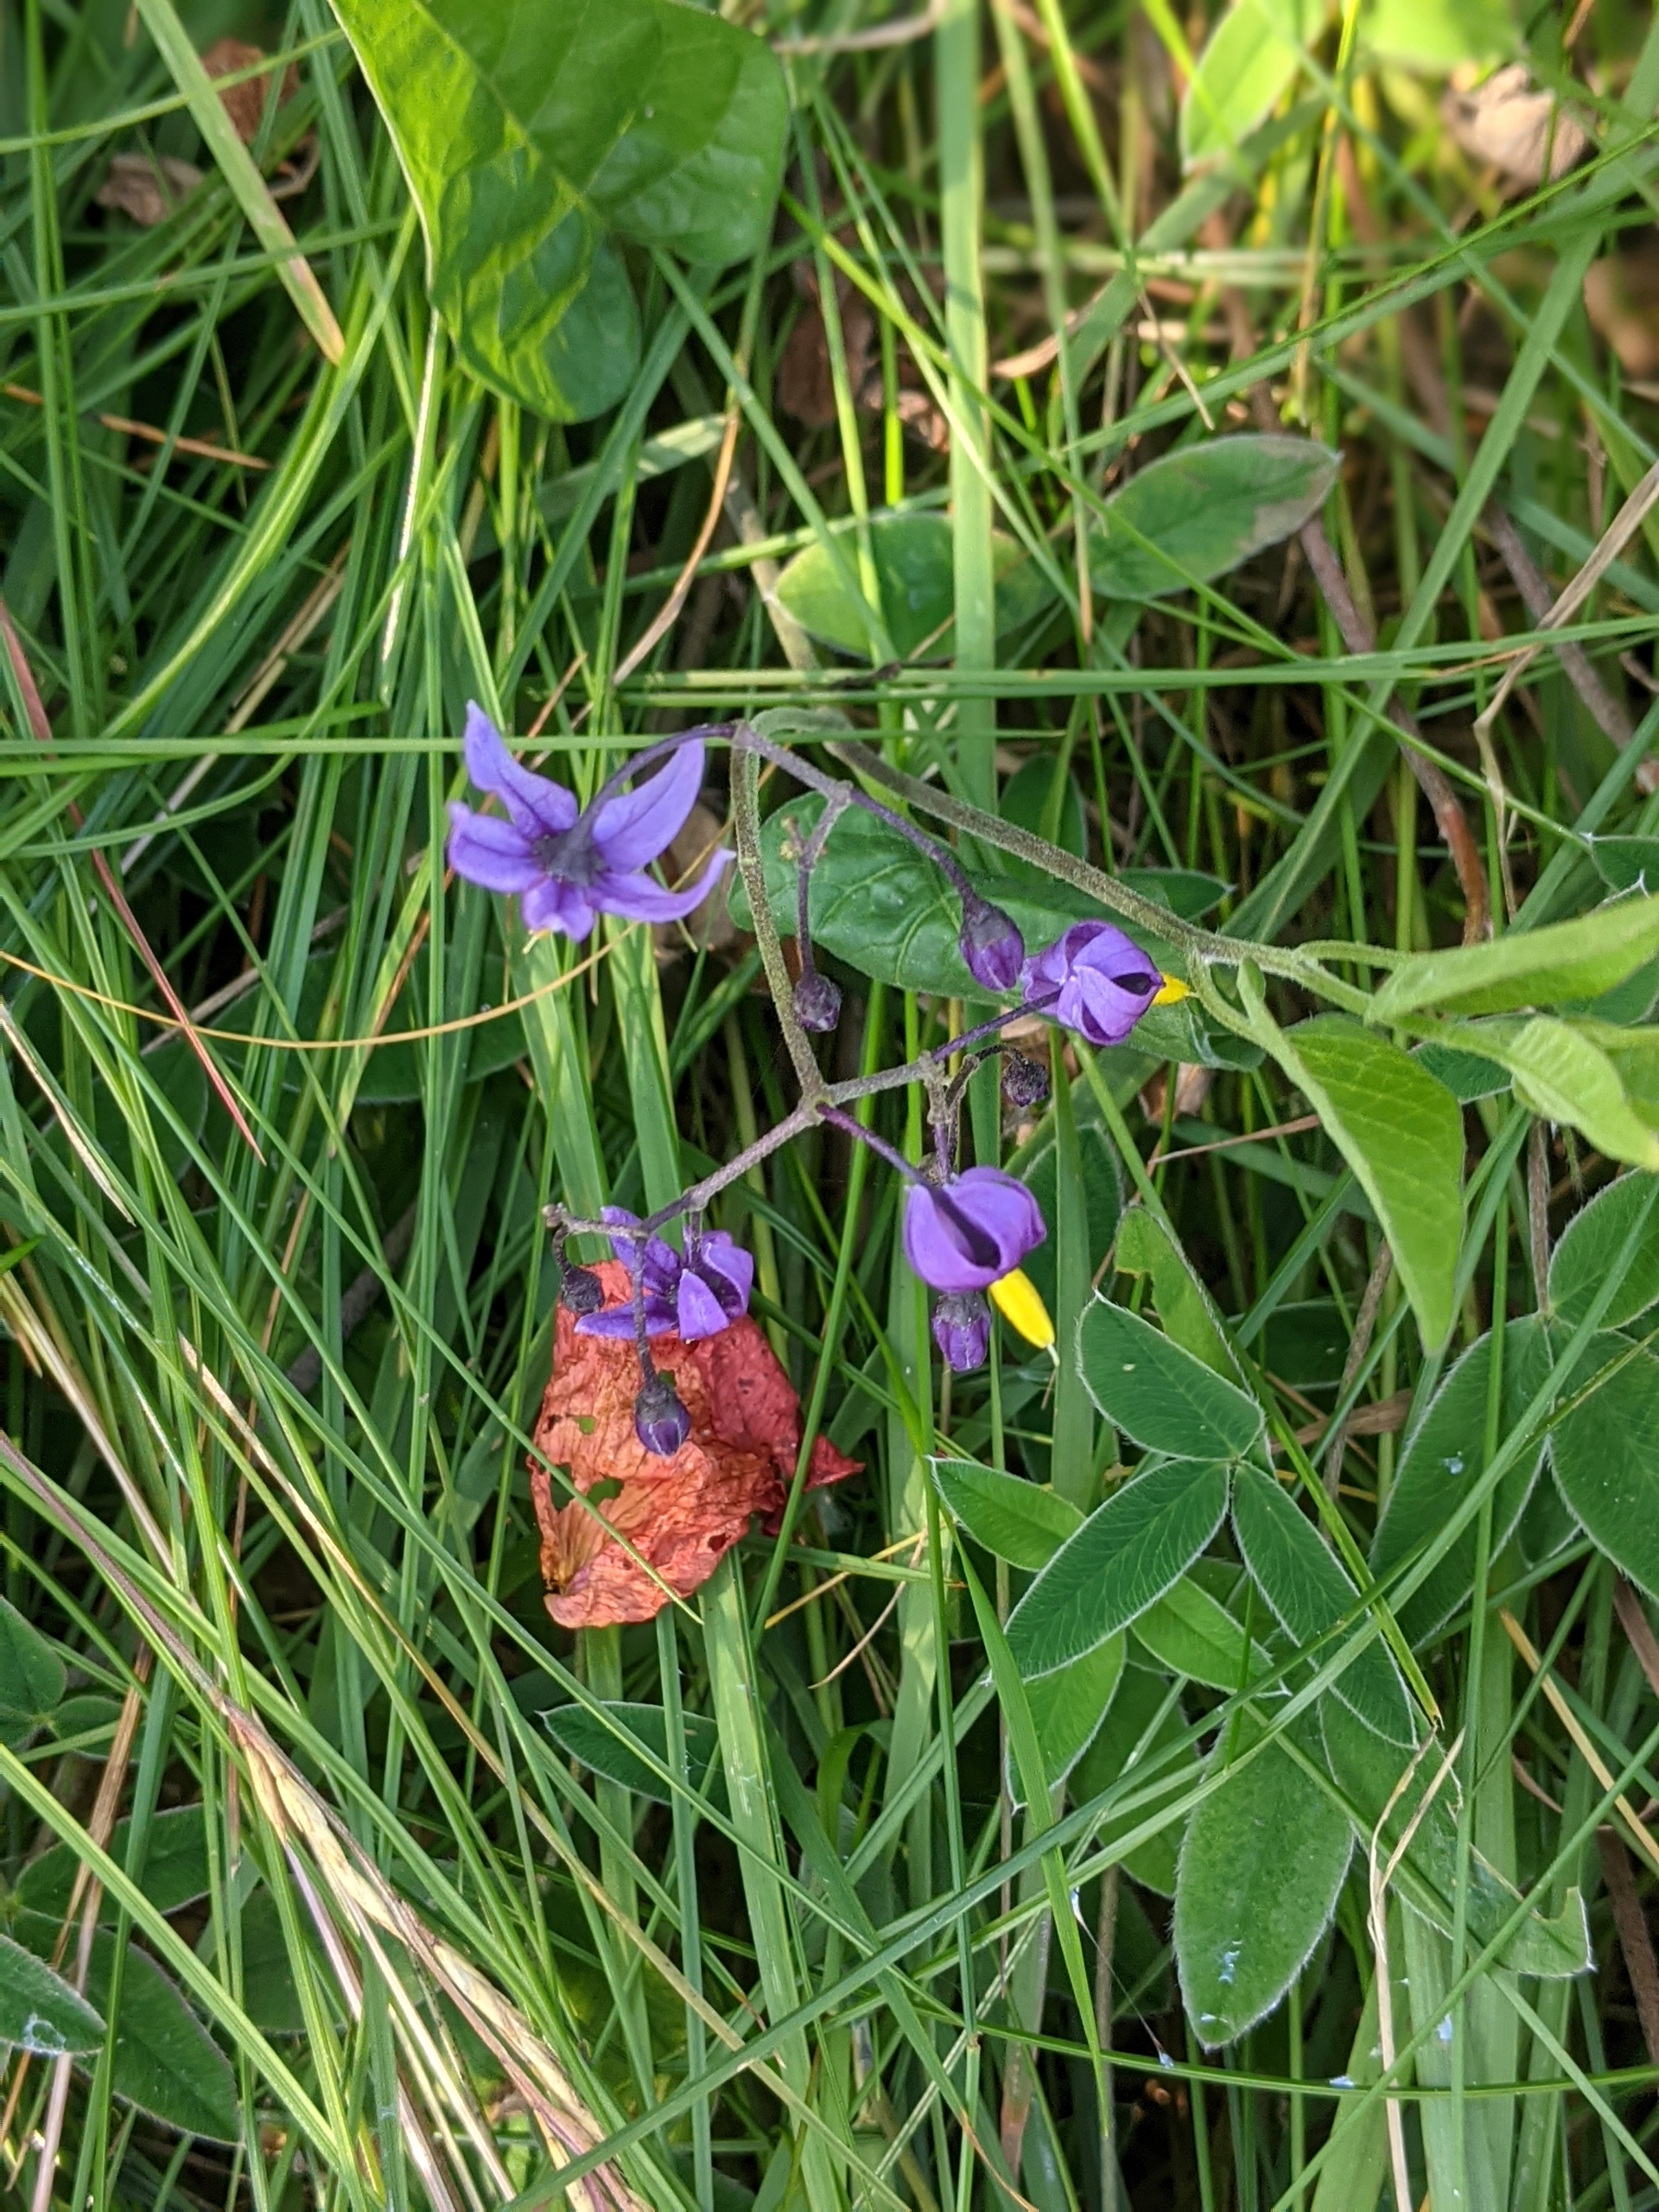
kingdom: Plantae
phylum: Tracheophyta
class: Magnoliopsida
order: Solanales
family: Solanaceae
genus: Solanum
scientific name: Solanum dulcamara
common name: Bittersød natskygge
